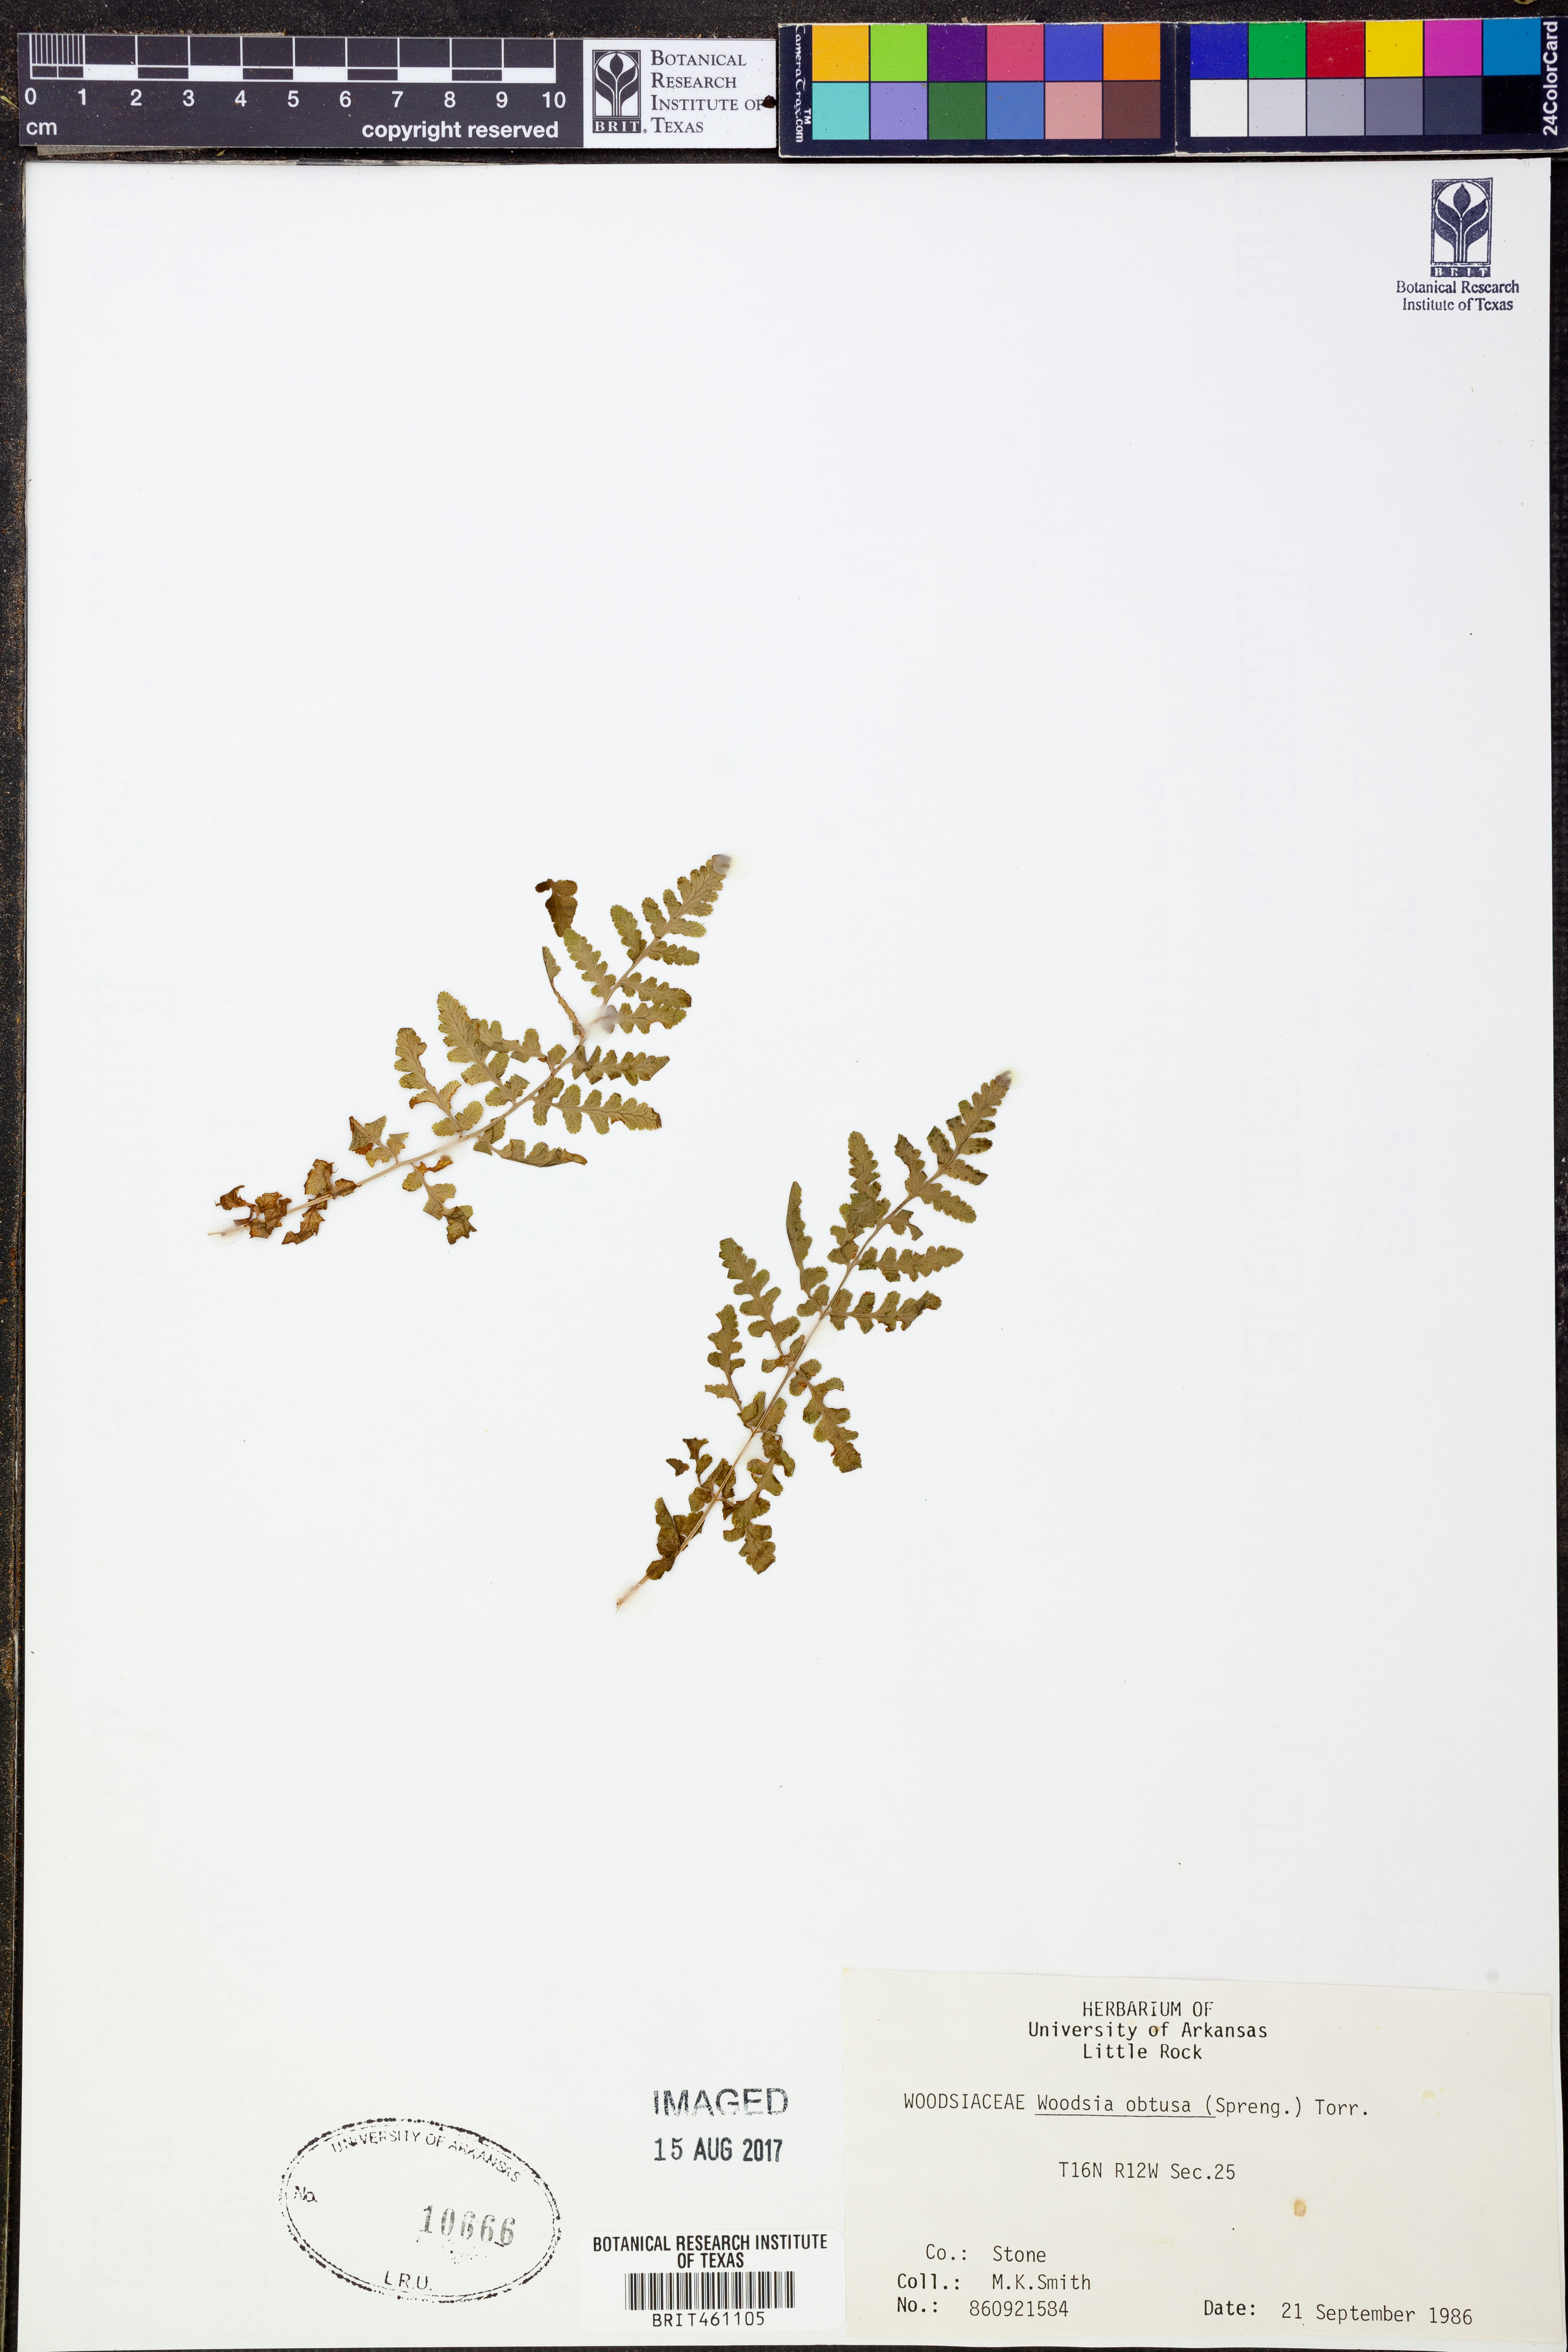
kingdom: Plantae
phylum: Tracheophyta
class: Polypodiopsida
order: Polypodiales
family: Woodsiaceae
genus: Physematium
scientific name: Physematium obtusum
